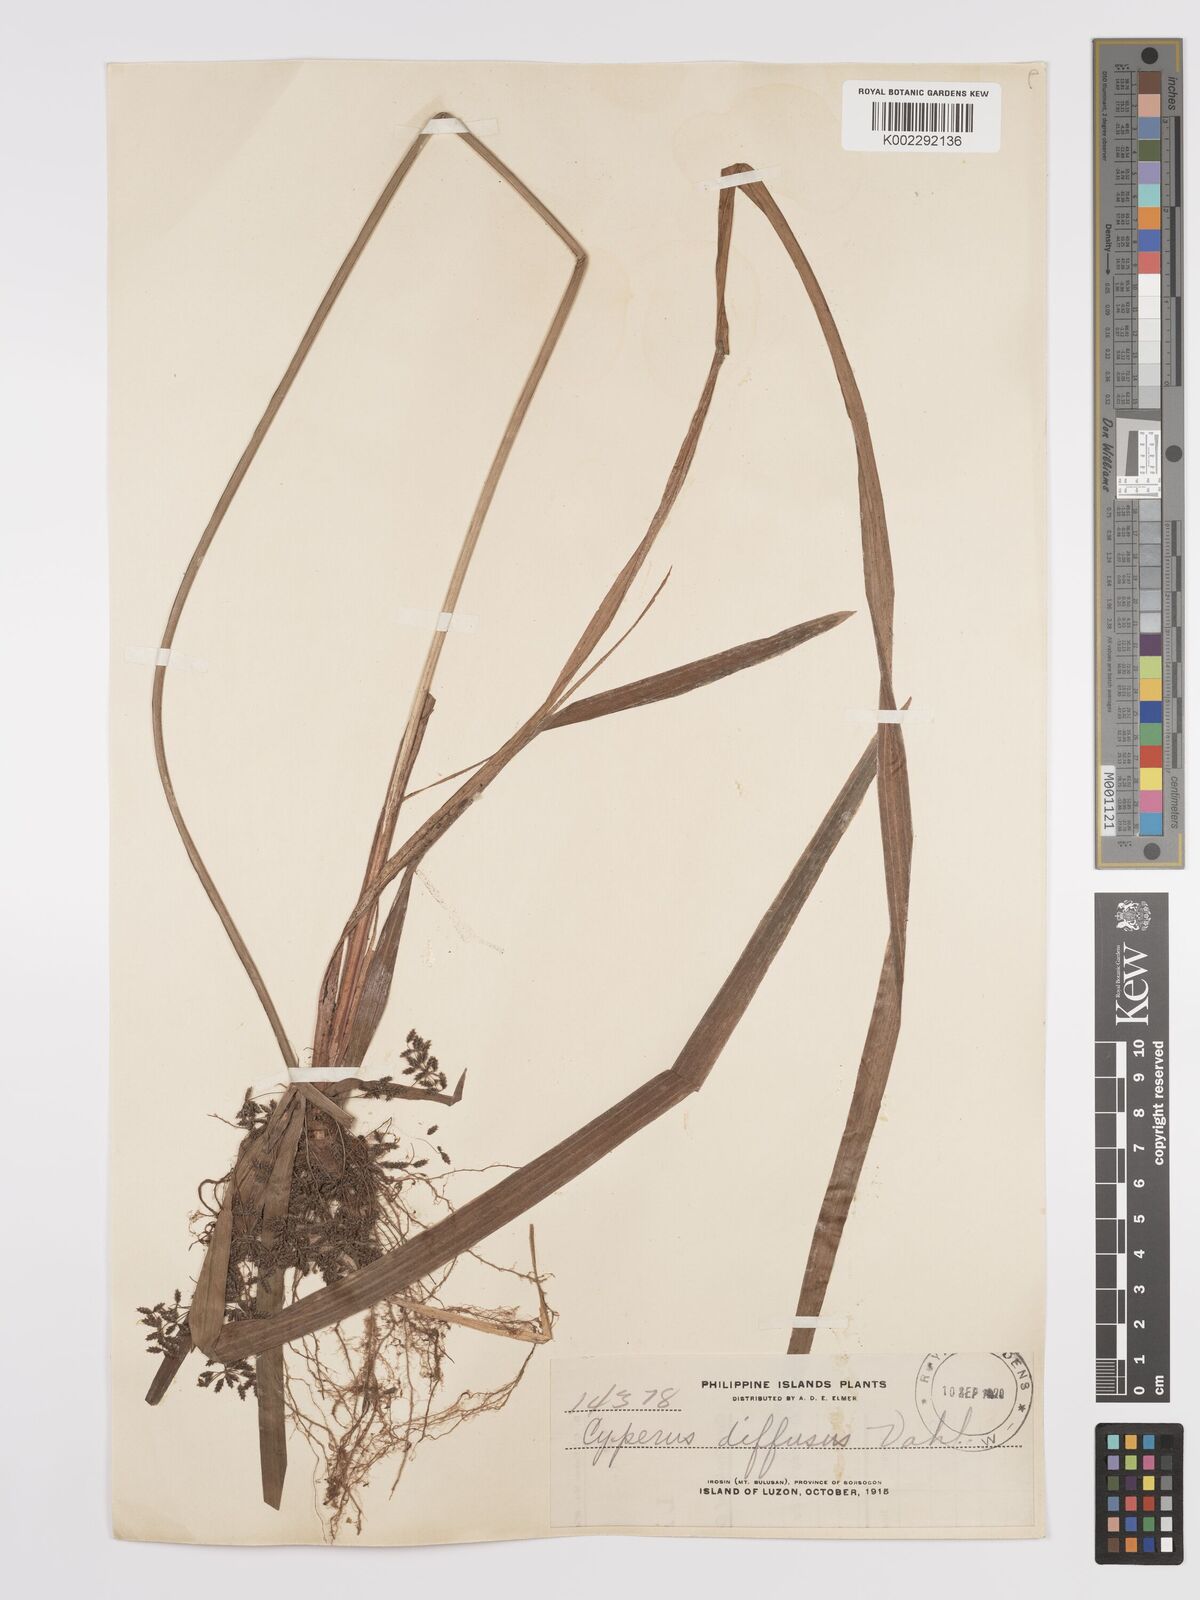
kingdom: Plantae
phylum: Tracheophyta
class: Liliopsida
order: Poales
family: Cyperaceae
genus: Cyperus
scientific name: Cyperus diffusus
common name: Dwarf umbrella grass
